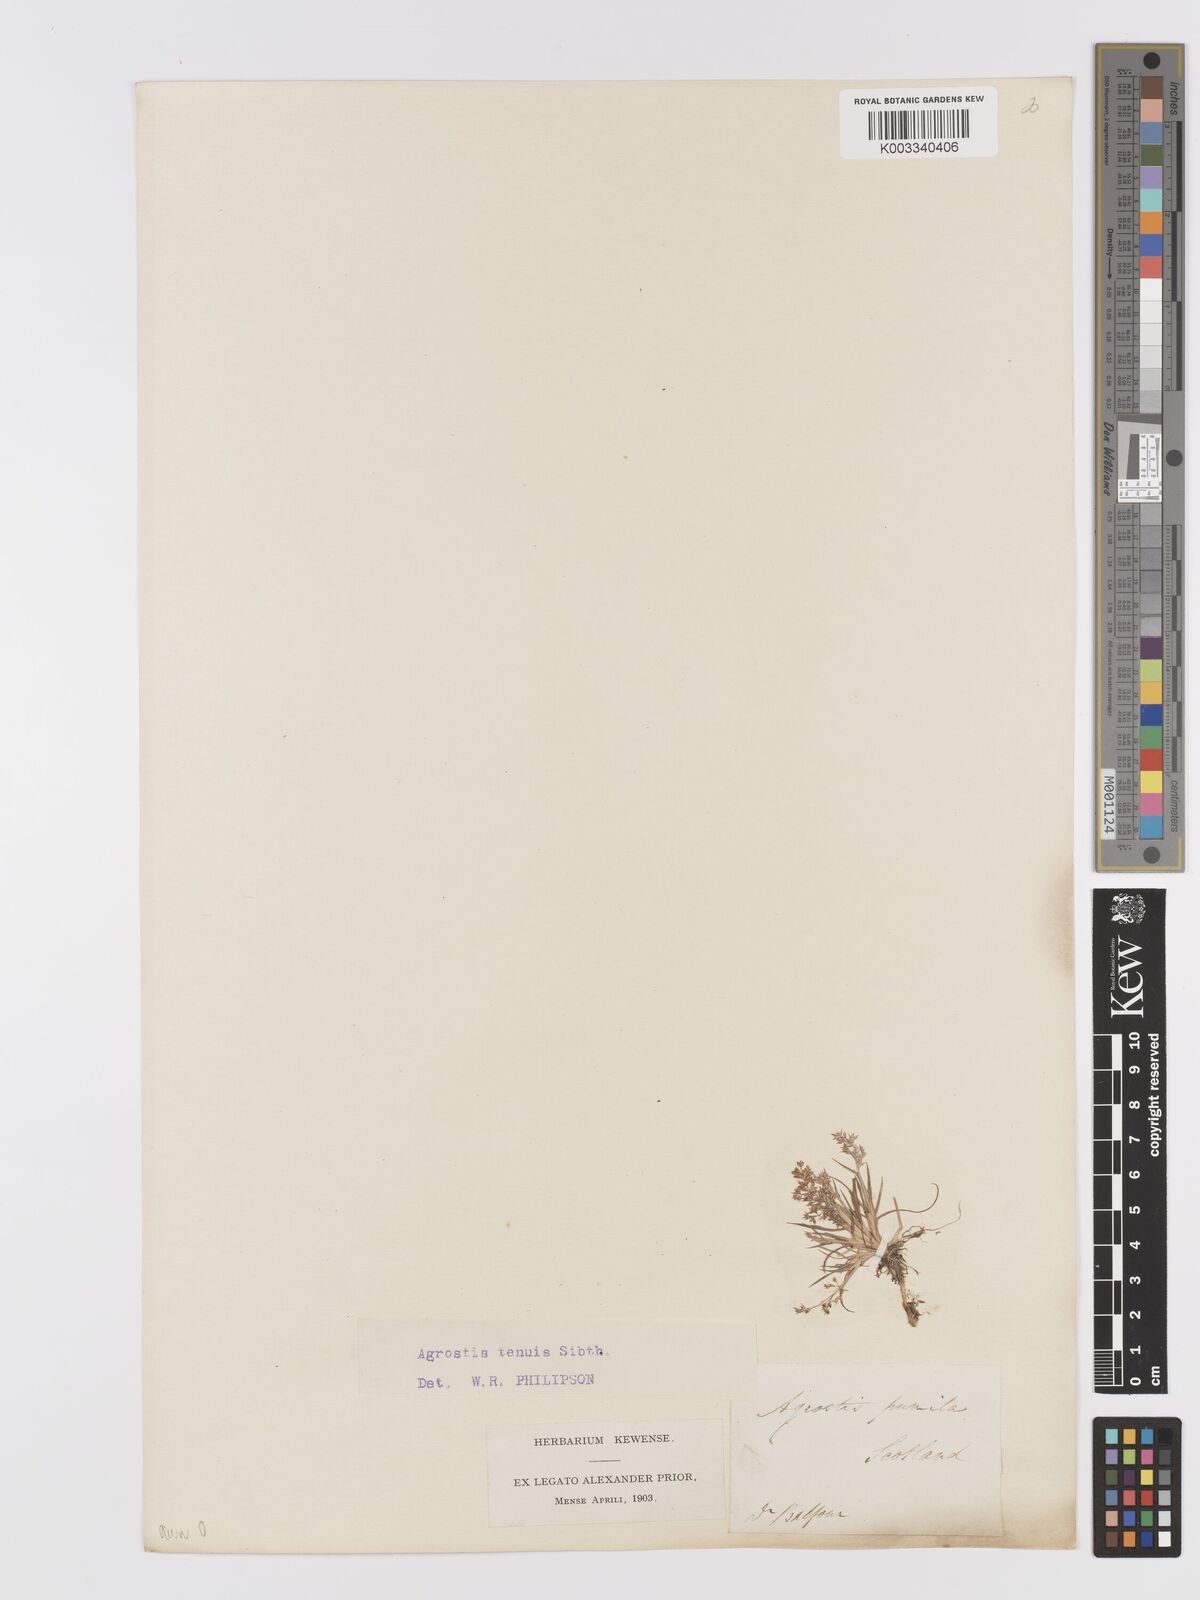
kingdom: Plantae
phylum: Tracheophyta
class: Liliopsida
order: Poales
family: Poaceae
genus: Agrostis
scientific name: Agrostis capillaris
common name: Colonial bentgrass
